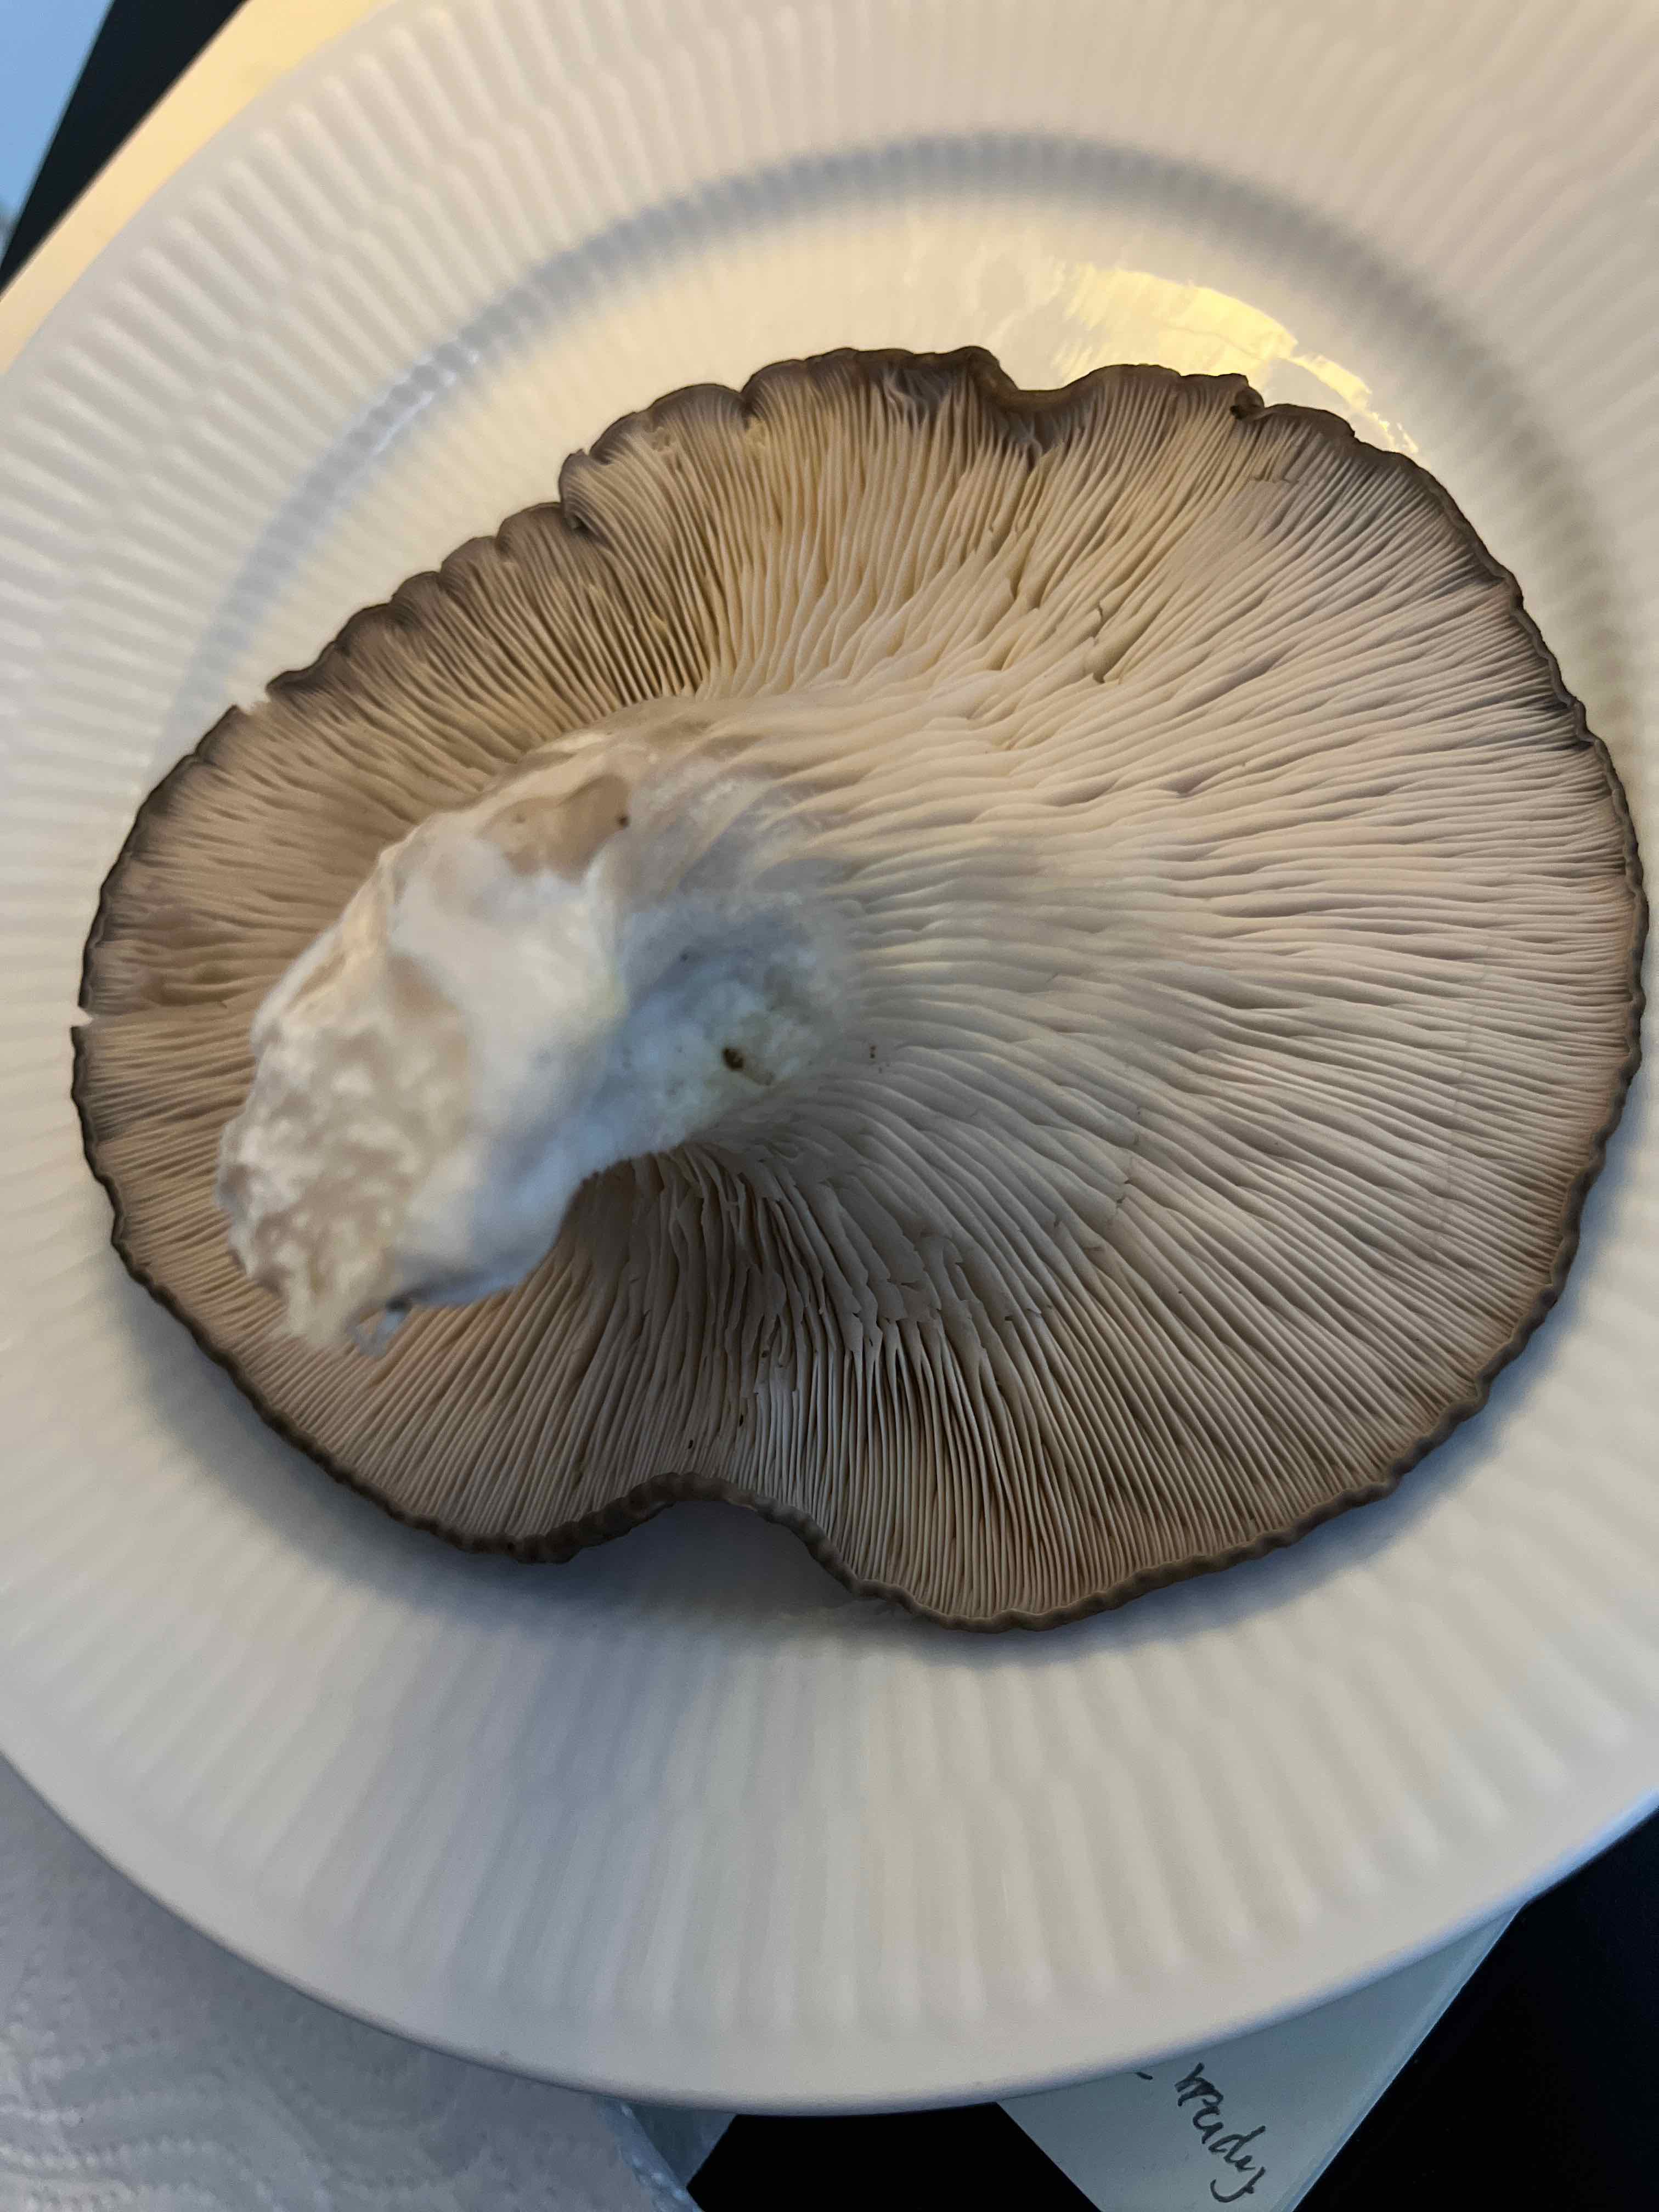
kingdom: Fungi
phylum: Basidiomycota
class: Agaricomycetes
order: Agaricales
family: Pleurotaceae
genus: Pleurotus
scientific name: Pleurotus ostreatus
